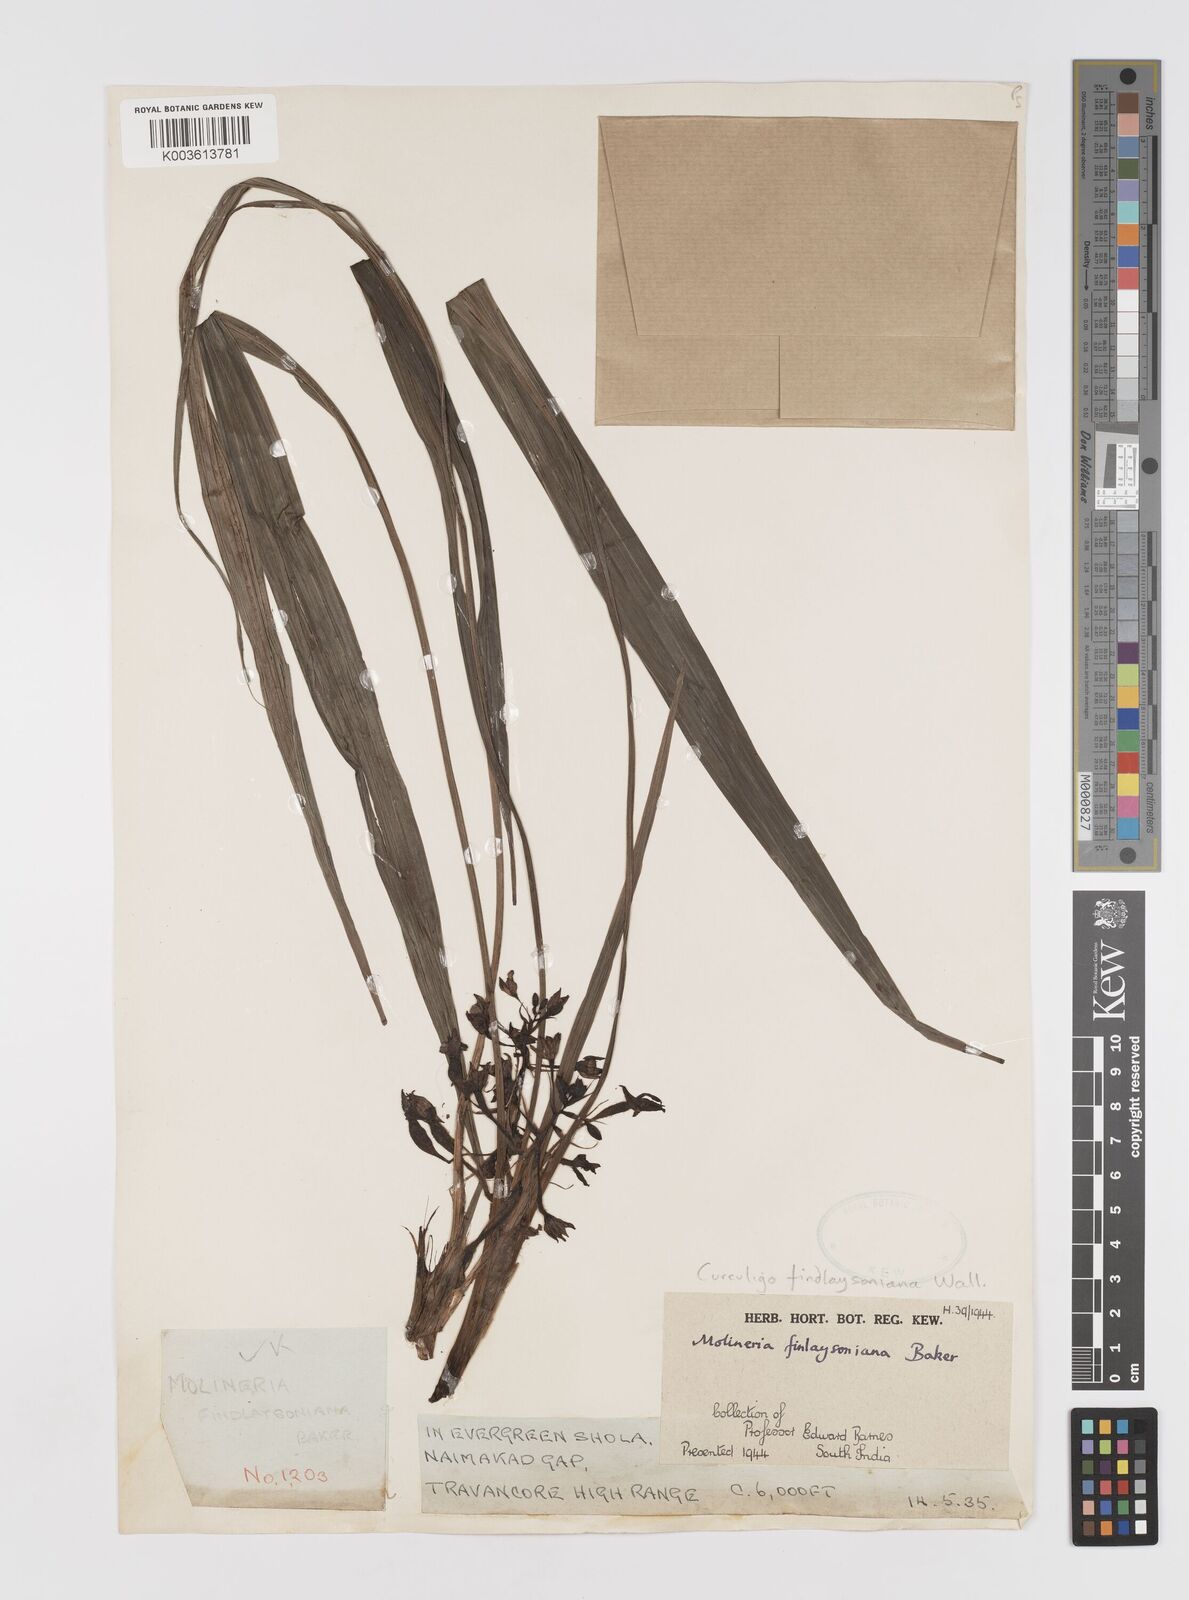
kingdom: Plantae
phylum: Tracheophyta
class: Liliopsida
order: Asparagales
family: Hypoxidaceae
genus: Curculigo
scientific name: Curculigo trichocarpa
